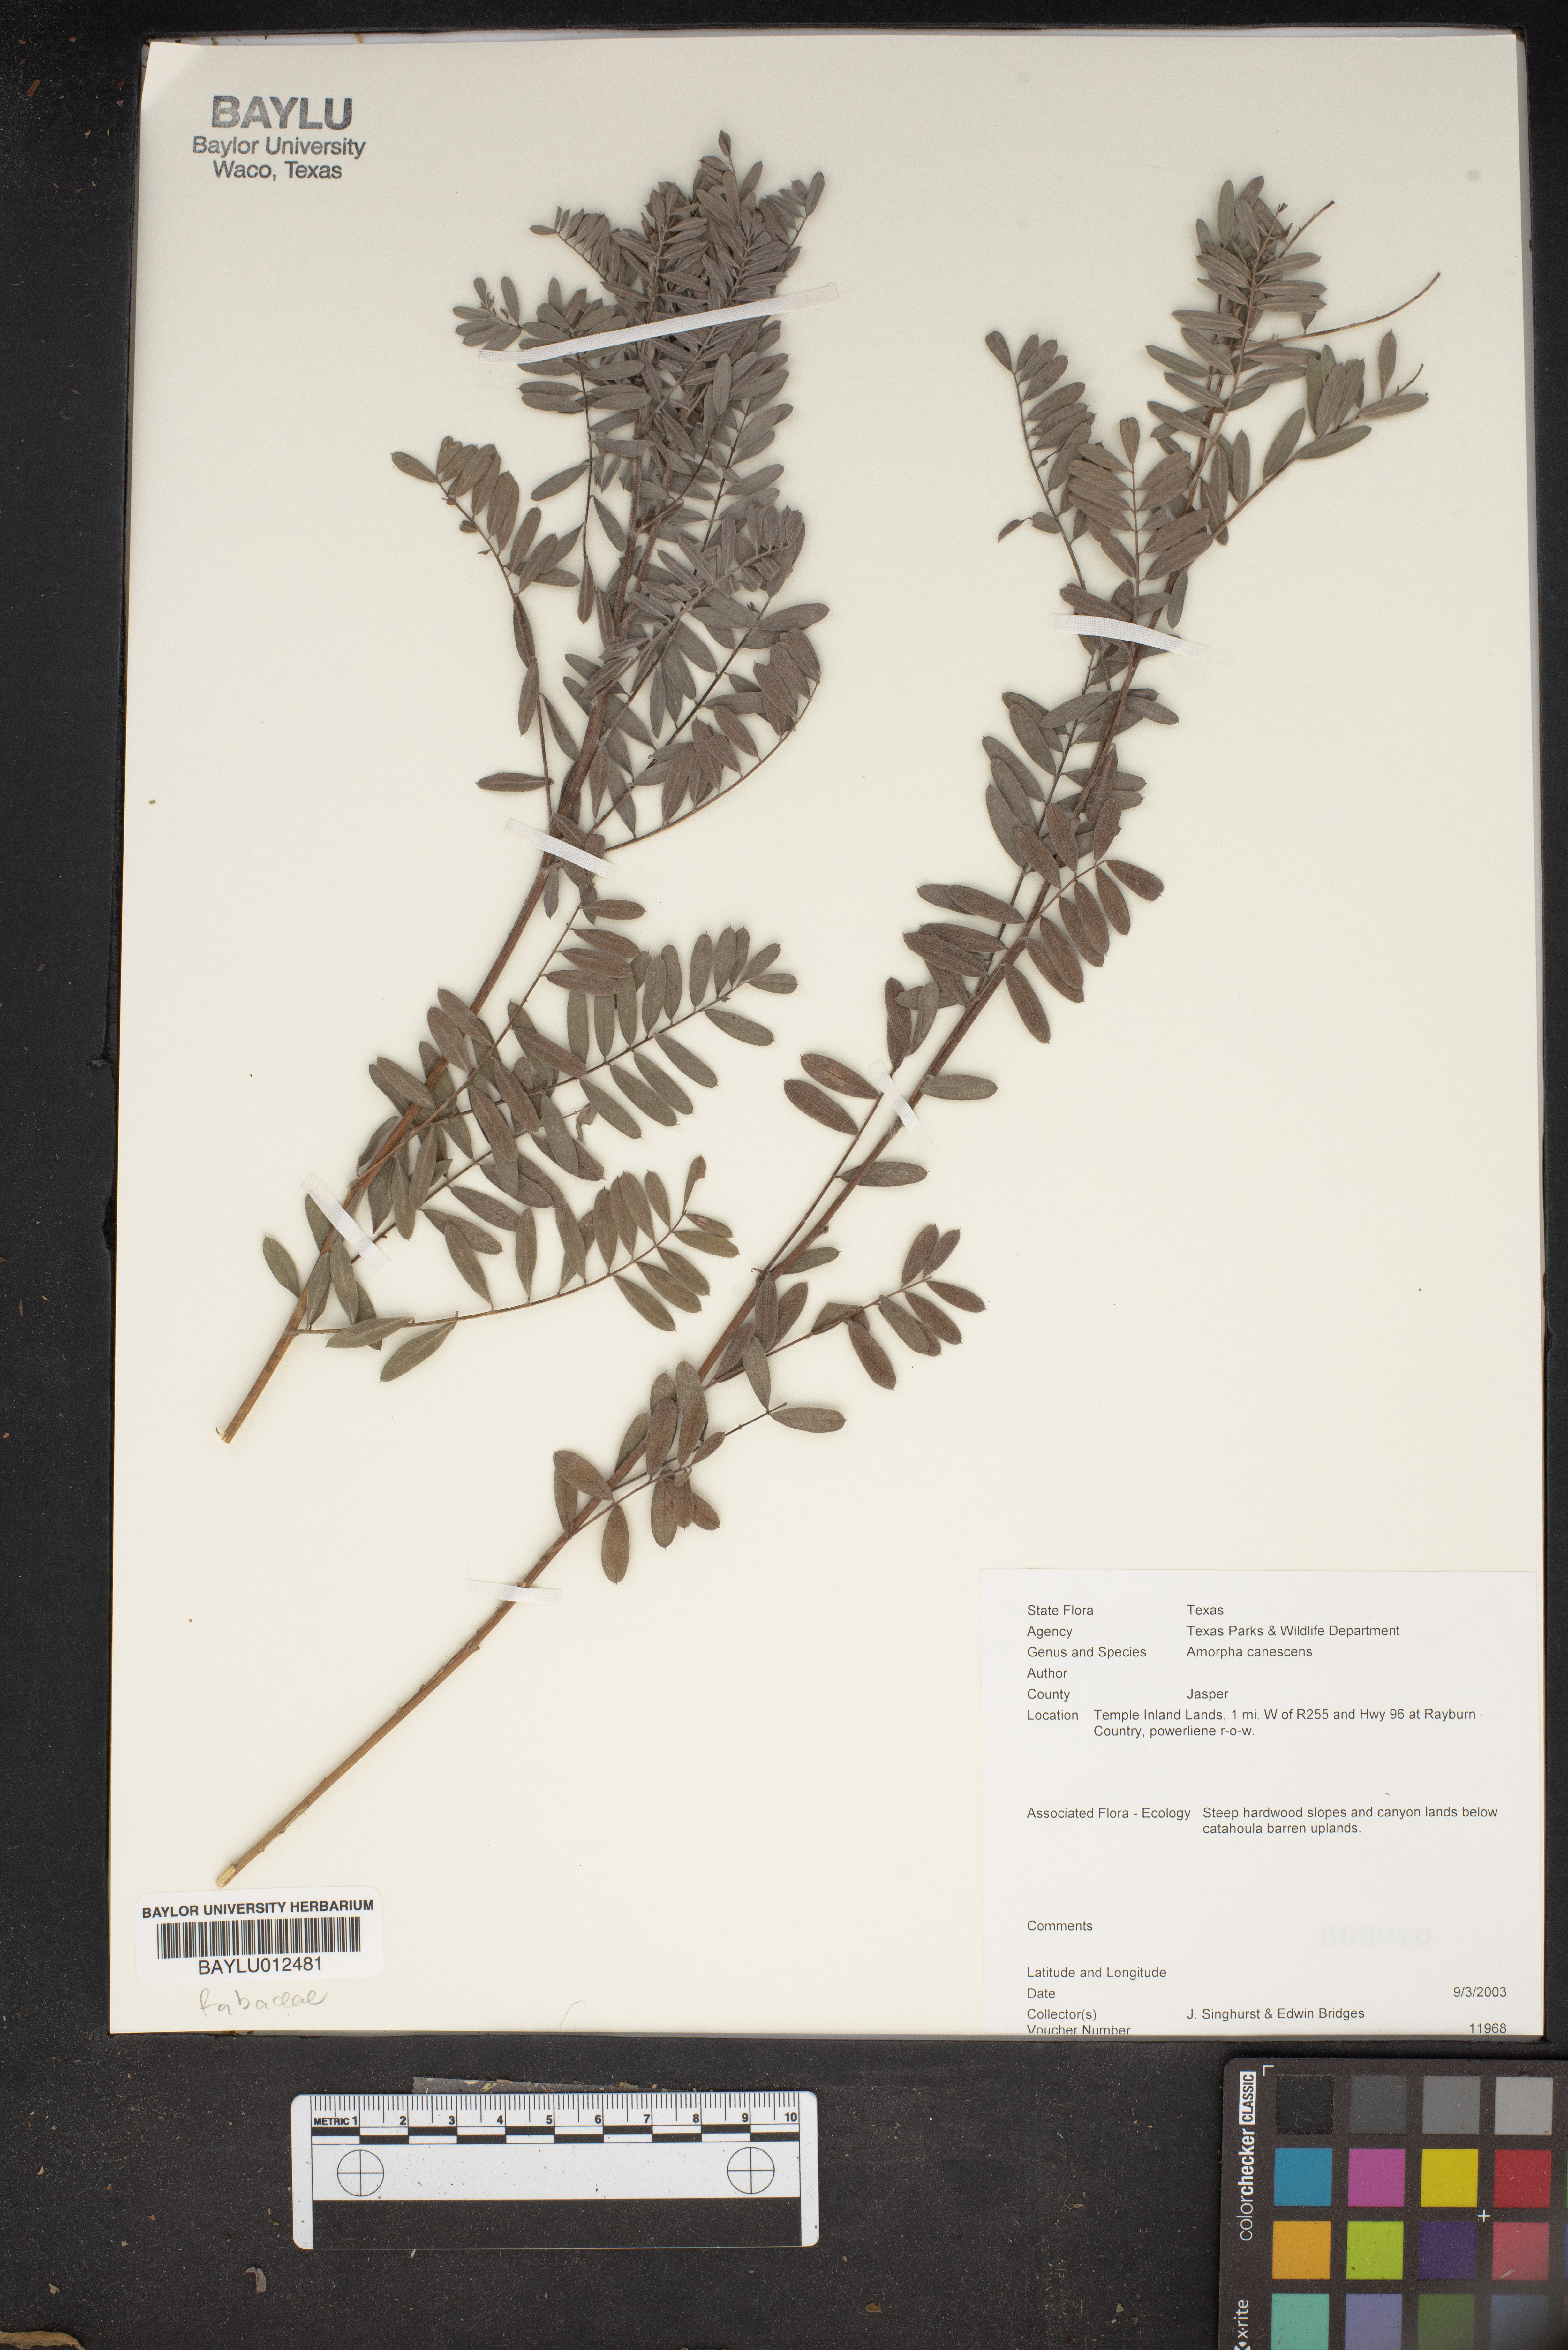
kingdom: Plantae
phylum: Tracheophyta
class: Magnoliopsida
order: Fabales
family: Fabaceae
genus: Amorpha
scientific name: Amorpha canescens
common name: Leadplant
